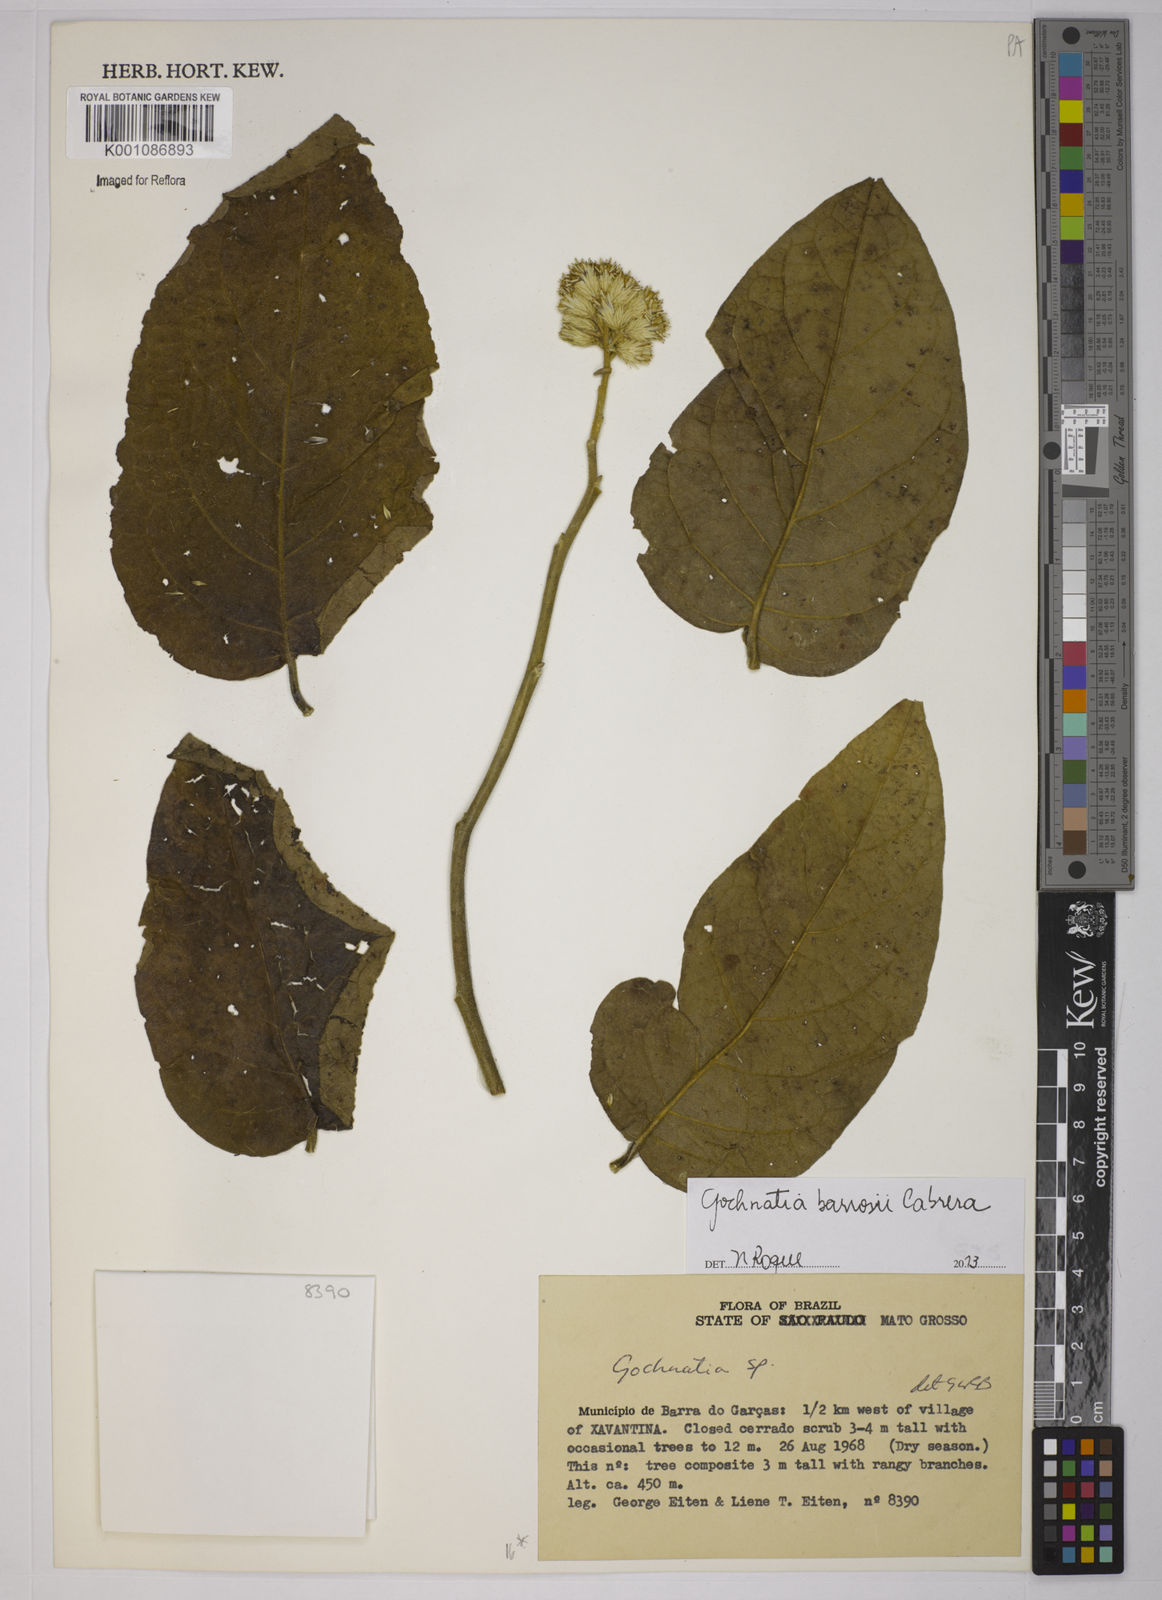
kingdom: Plantae
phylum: Tracheophyta
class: Magnoliopsida
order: Asterales
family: Asteraceae
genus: Moquiniastrum
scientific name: Moquiniastrum barrosoae
